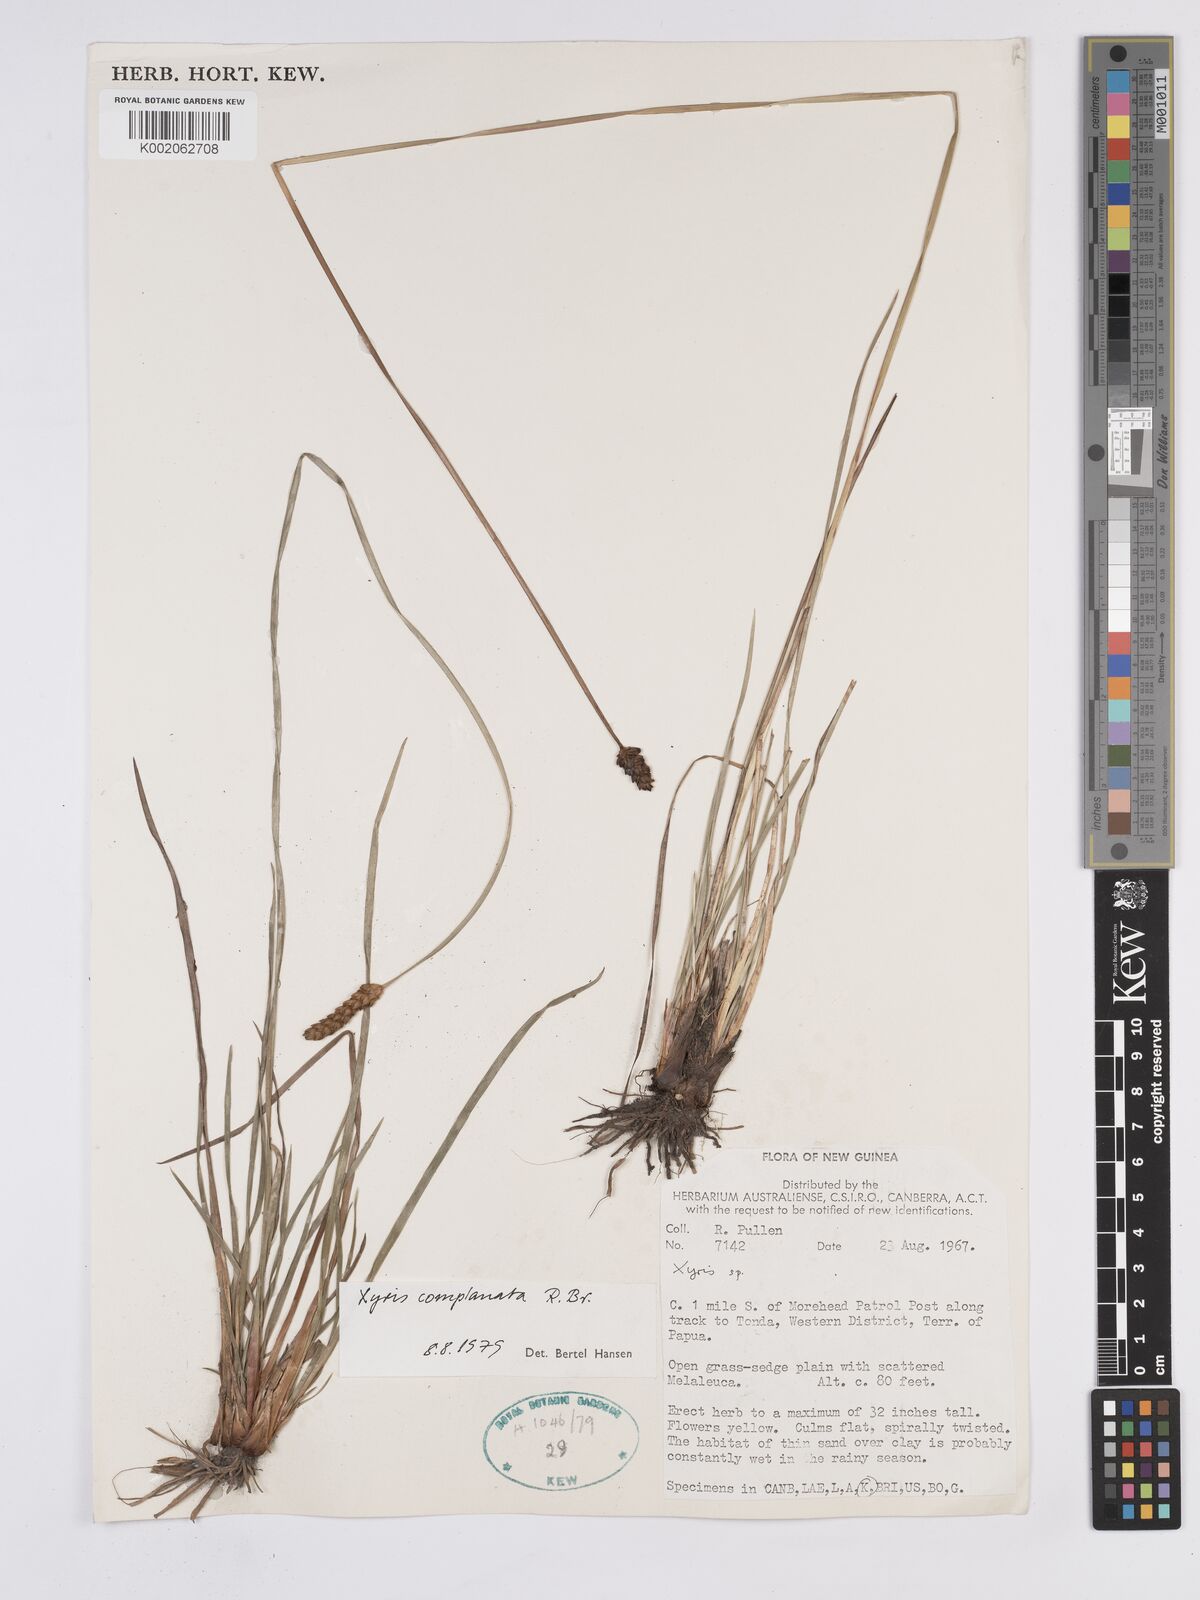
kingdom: Plantae
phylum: Tracheophyta
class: Liliopsida
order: Poales
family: Xyridaceae
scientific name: Xyridaceae
